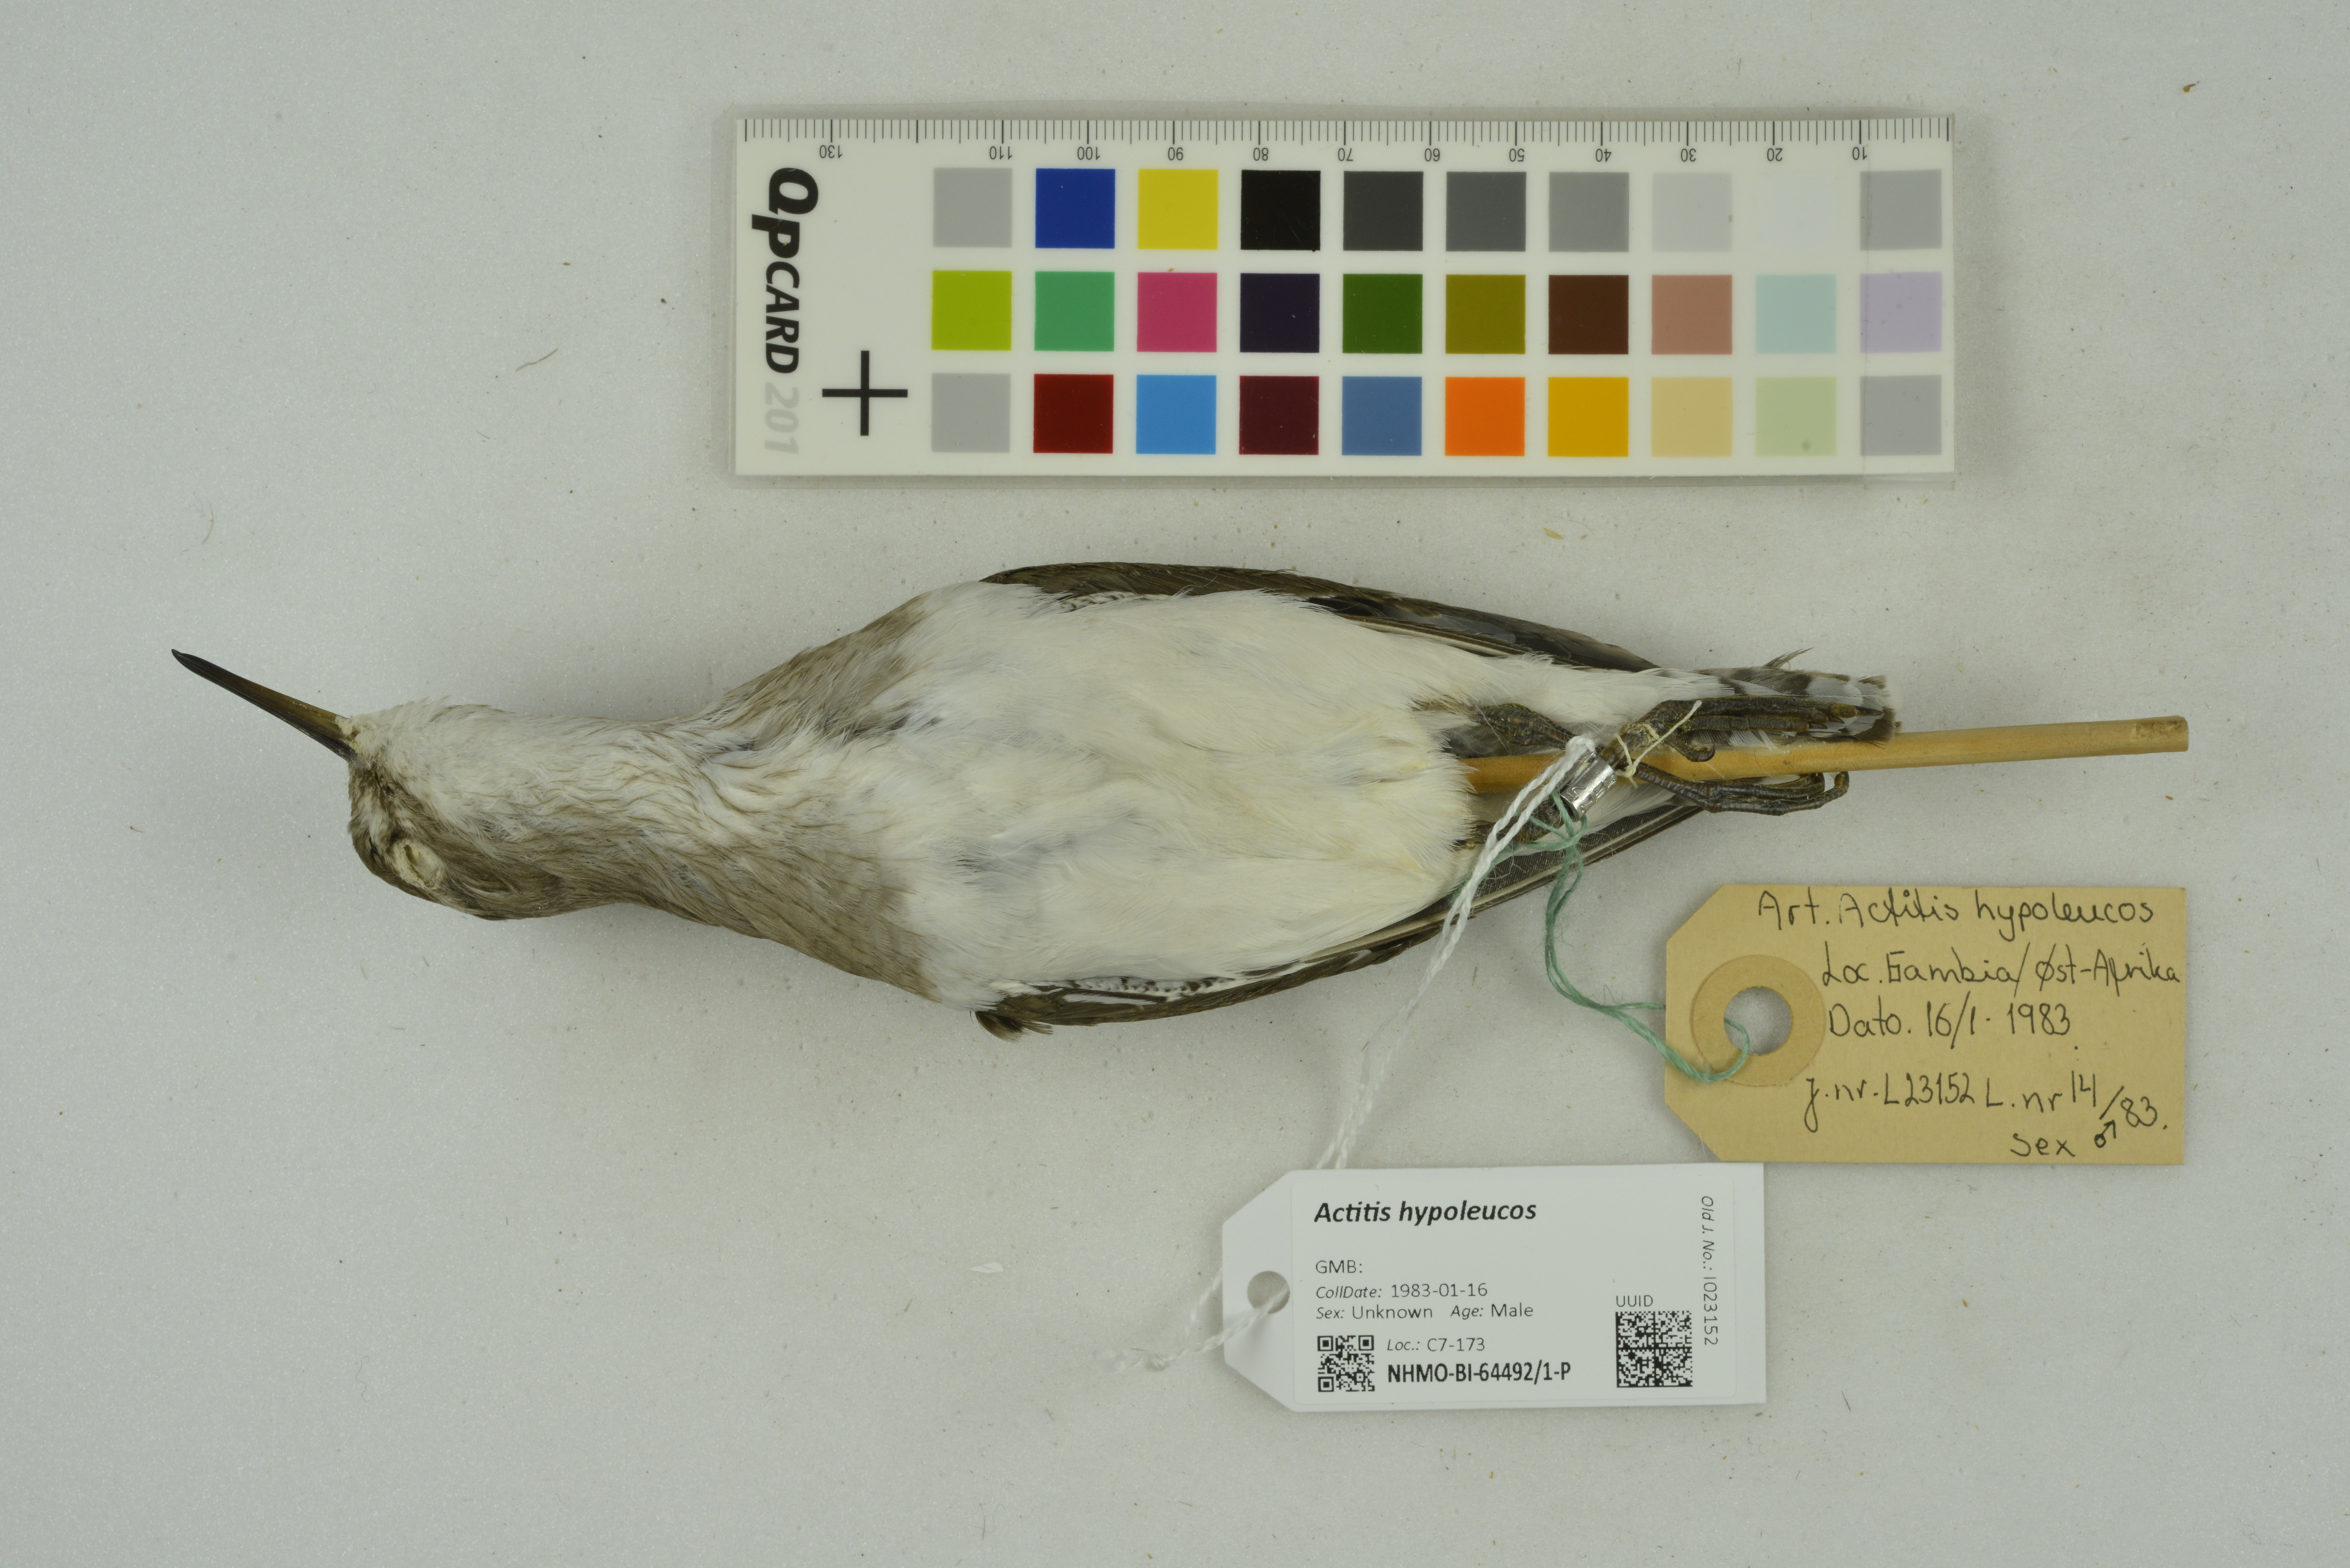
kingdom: Animalia
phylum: Chordata
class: Aves
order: Charadriiformes
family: Scolopacidae
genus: Actitis
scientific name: Actitis hypoleucos
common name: Common sandpiper
